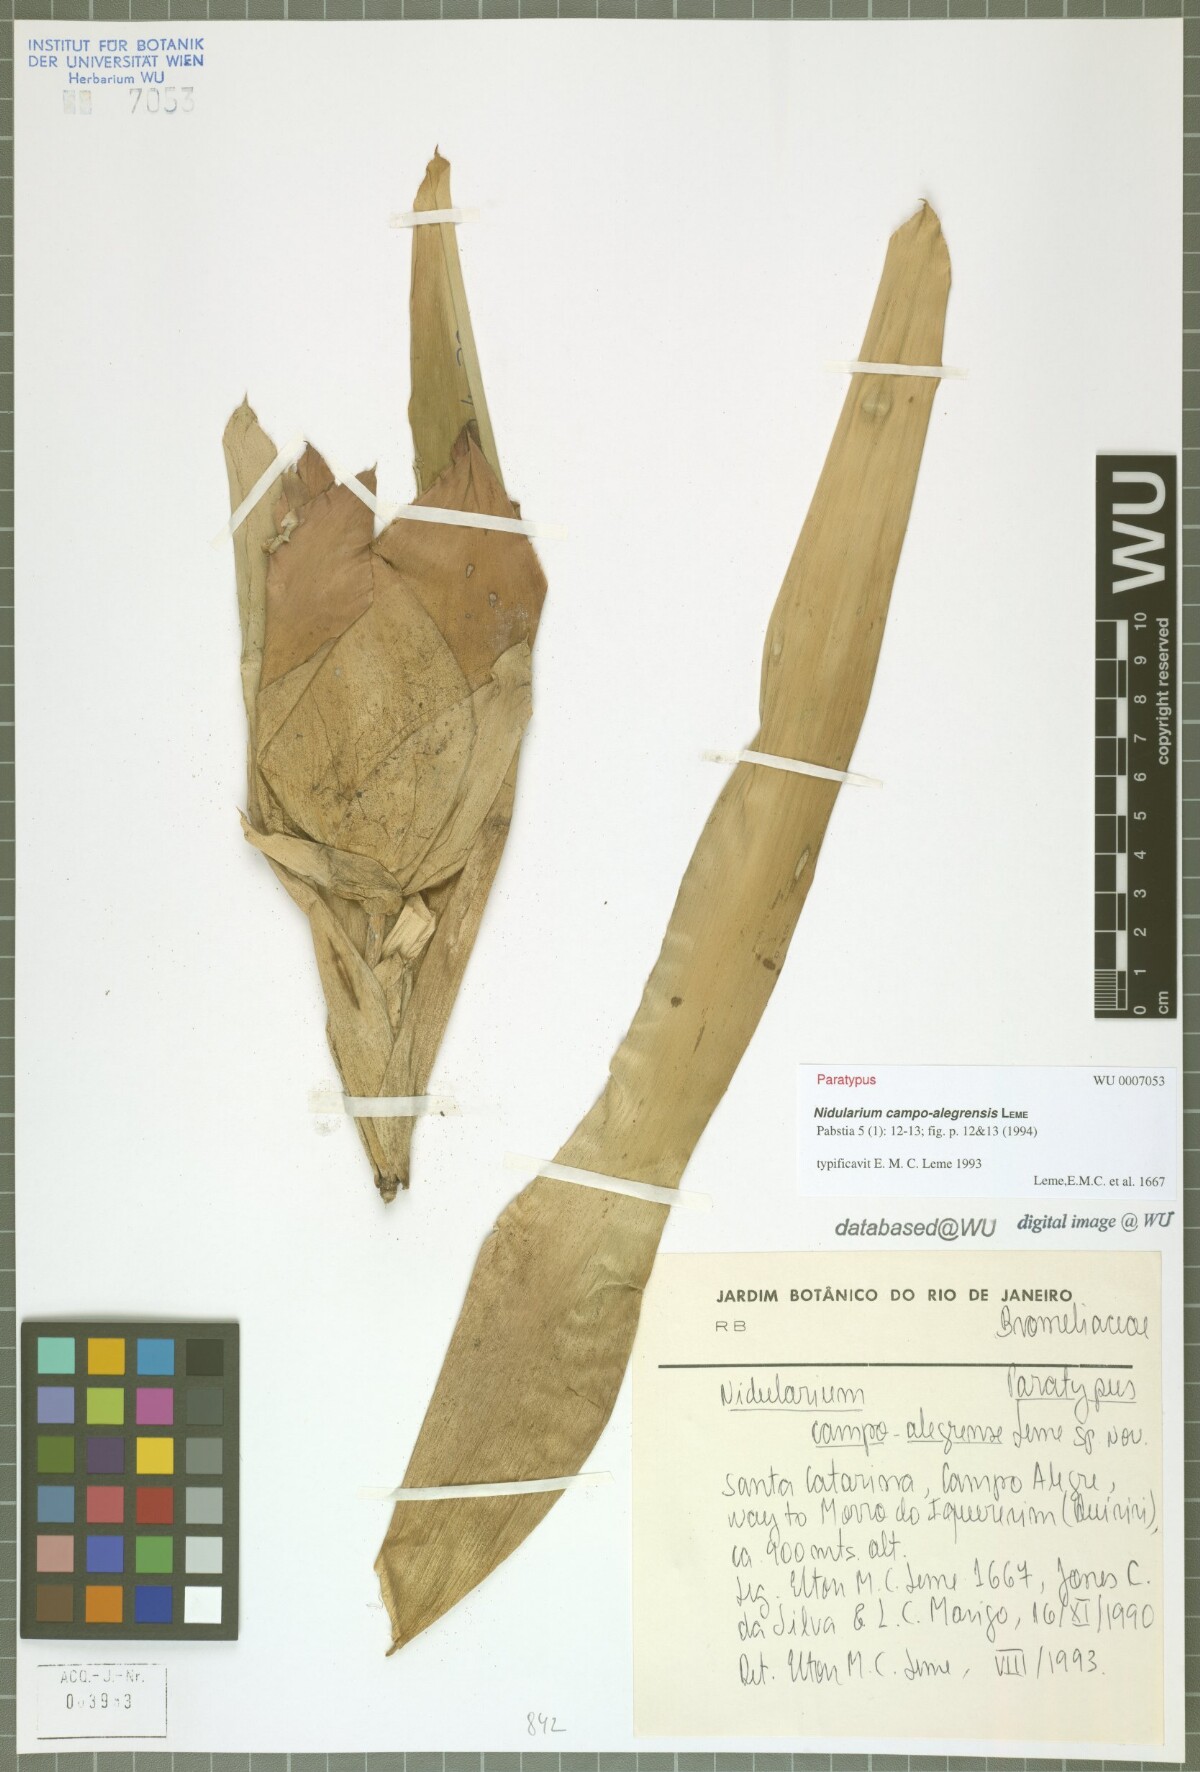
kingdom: Plantae
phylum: Tracheophyta
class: Liliopsida
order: Poales
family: Bromeliaceae
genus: Nidularium
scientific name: Nidularium campo-alegrense
